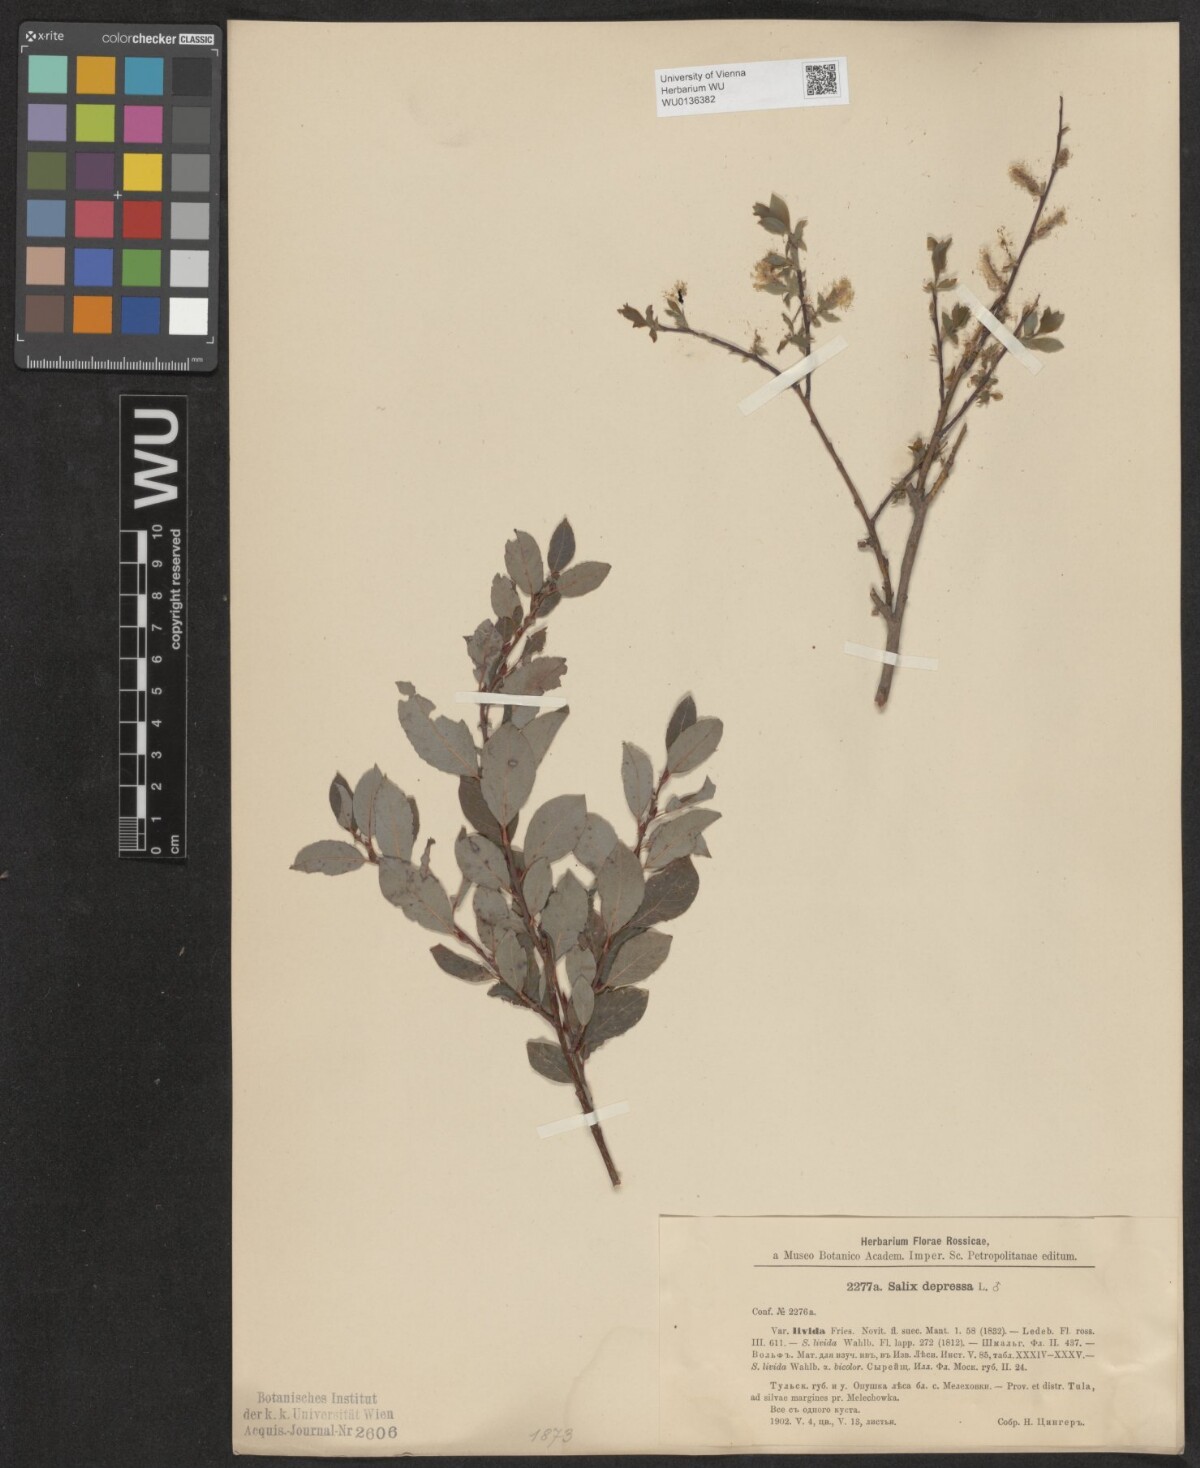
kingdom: Plantae
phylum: Tracheophyta
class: Magnoliopsida
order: Malpighiales
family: Salicaceae
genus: Salix
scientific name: Salix lanata
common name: Woolly willow
